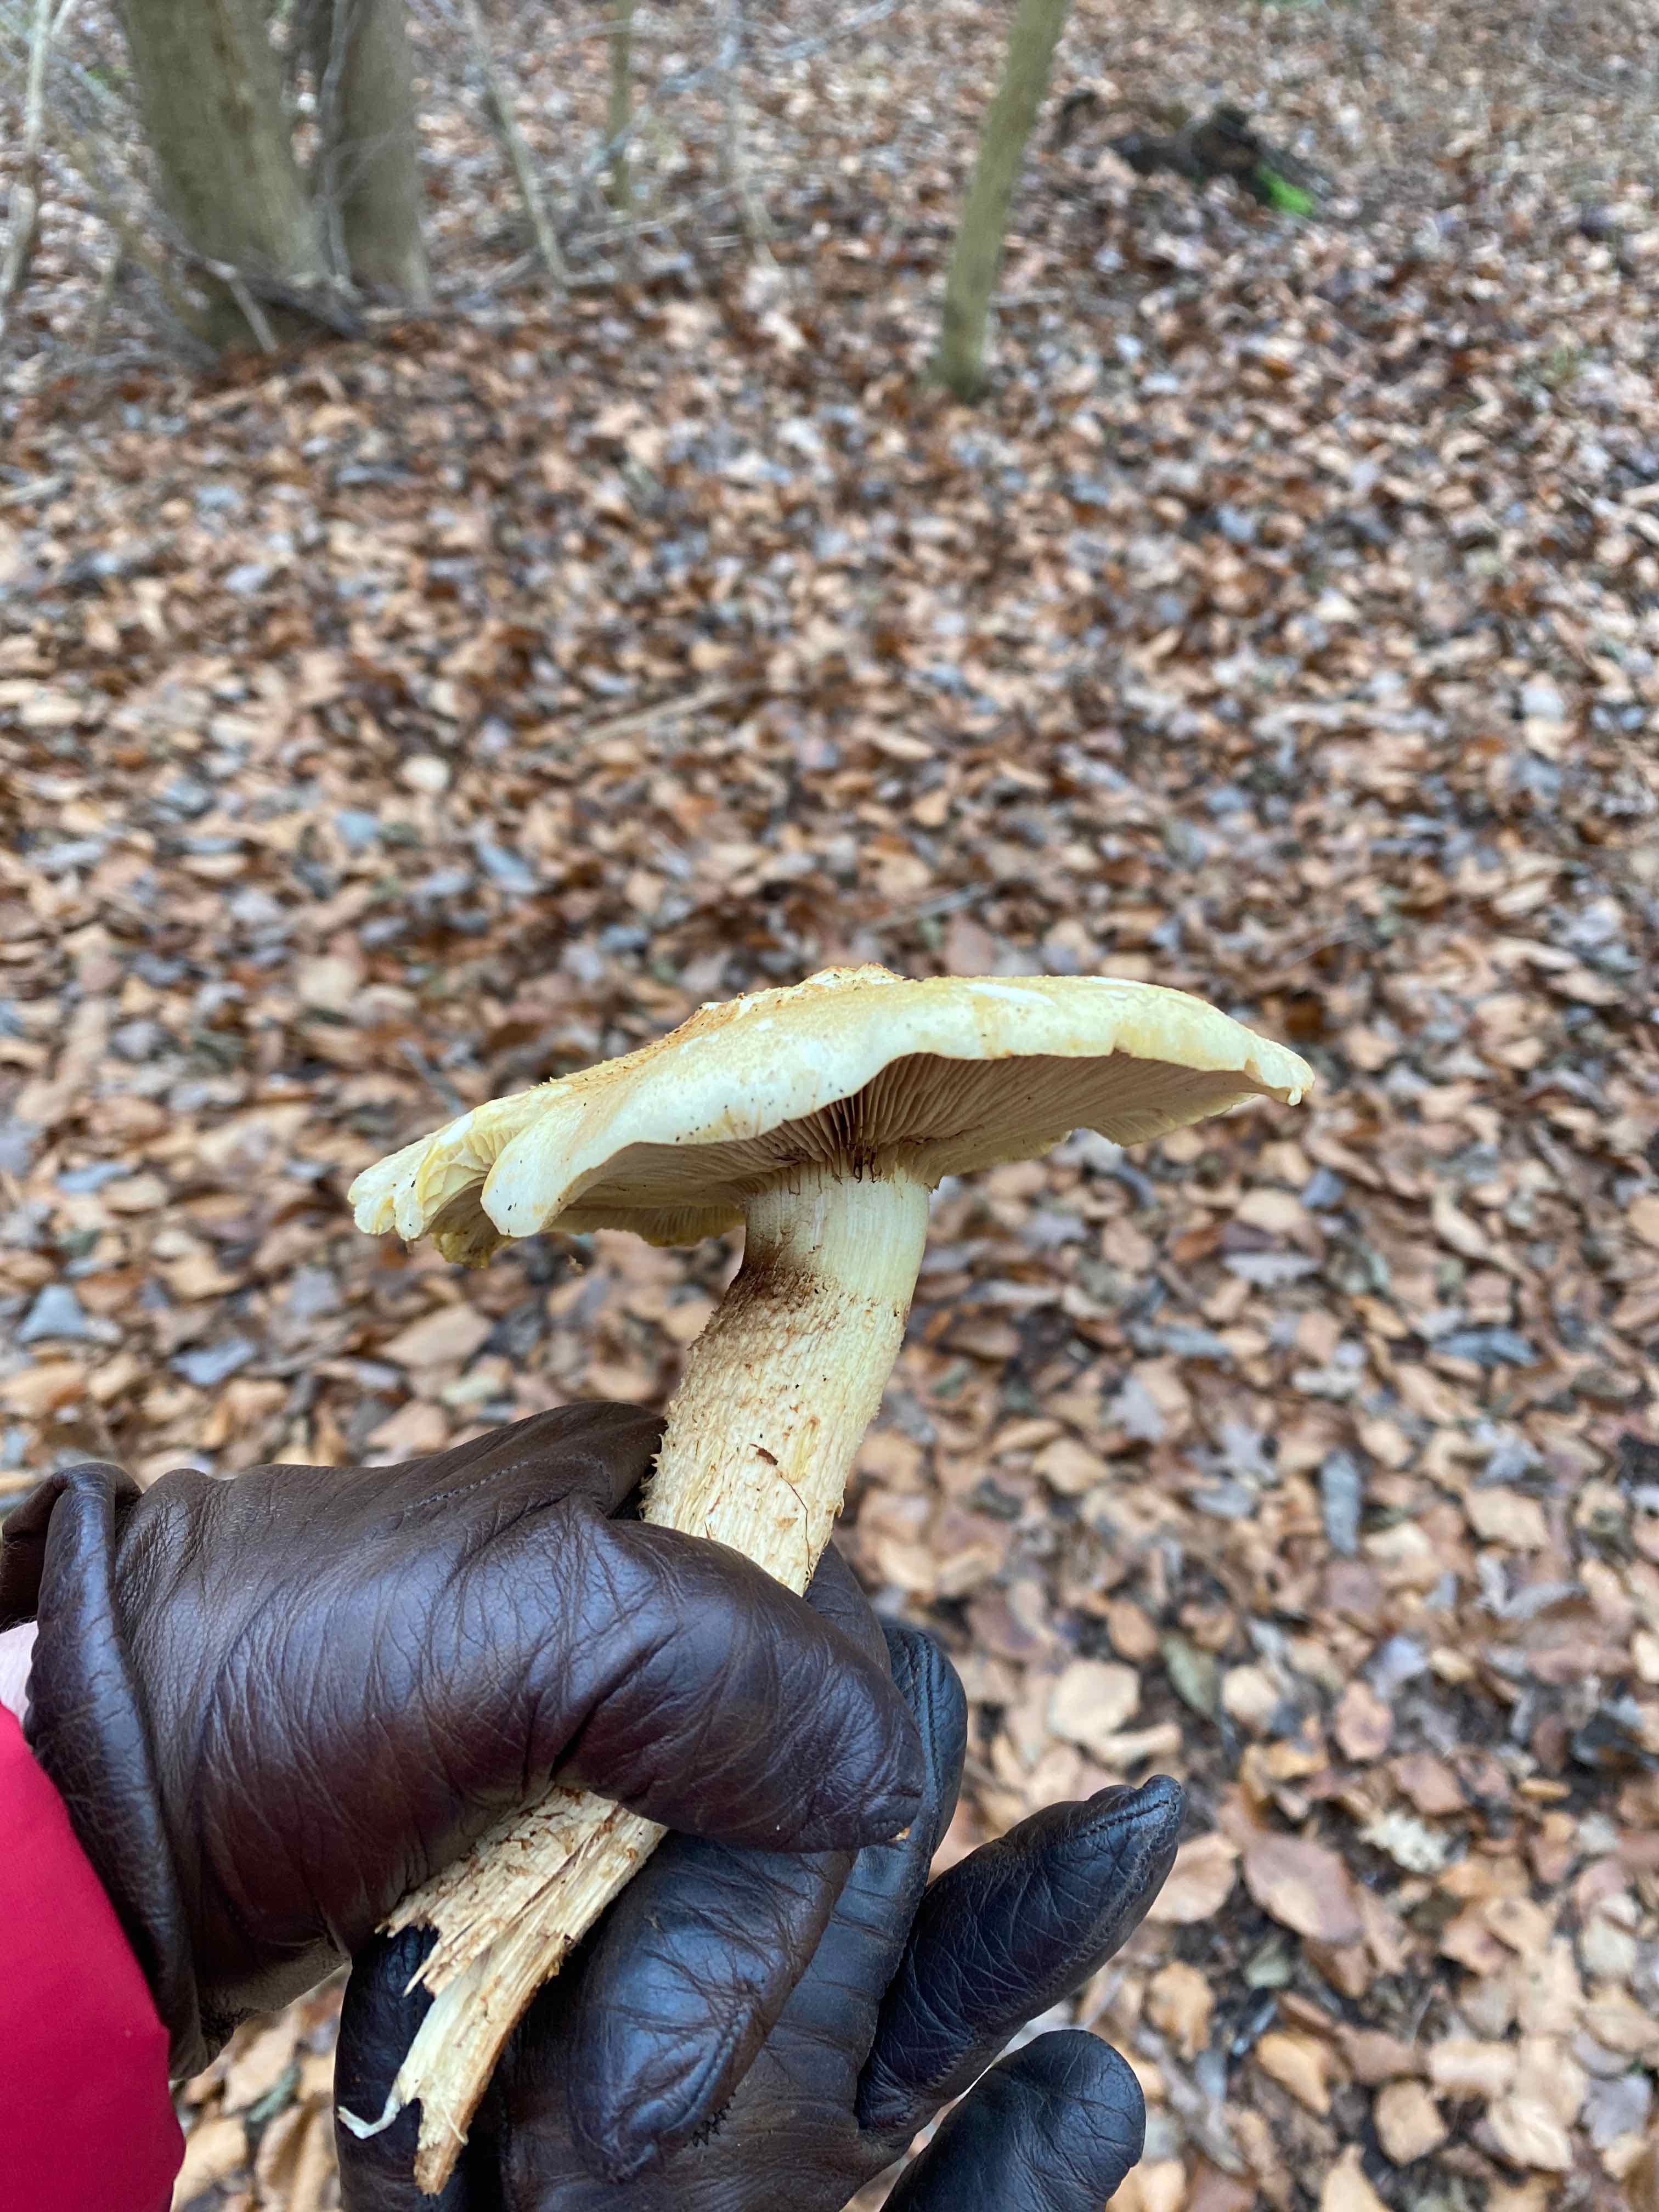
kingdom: Fungi
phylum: Basidiomycota
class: Agaricomycetes
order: Agaricales
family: Strophariaceae
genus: Pholiota
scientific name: Pholiota
